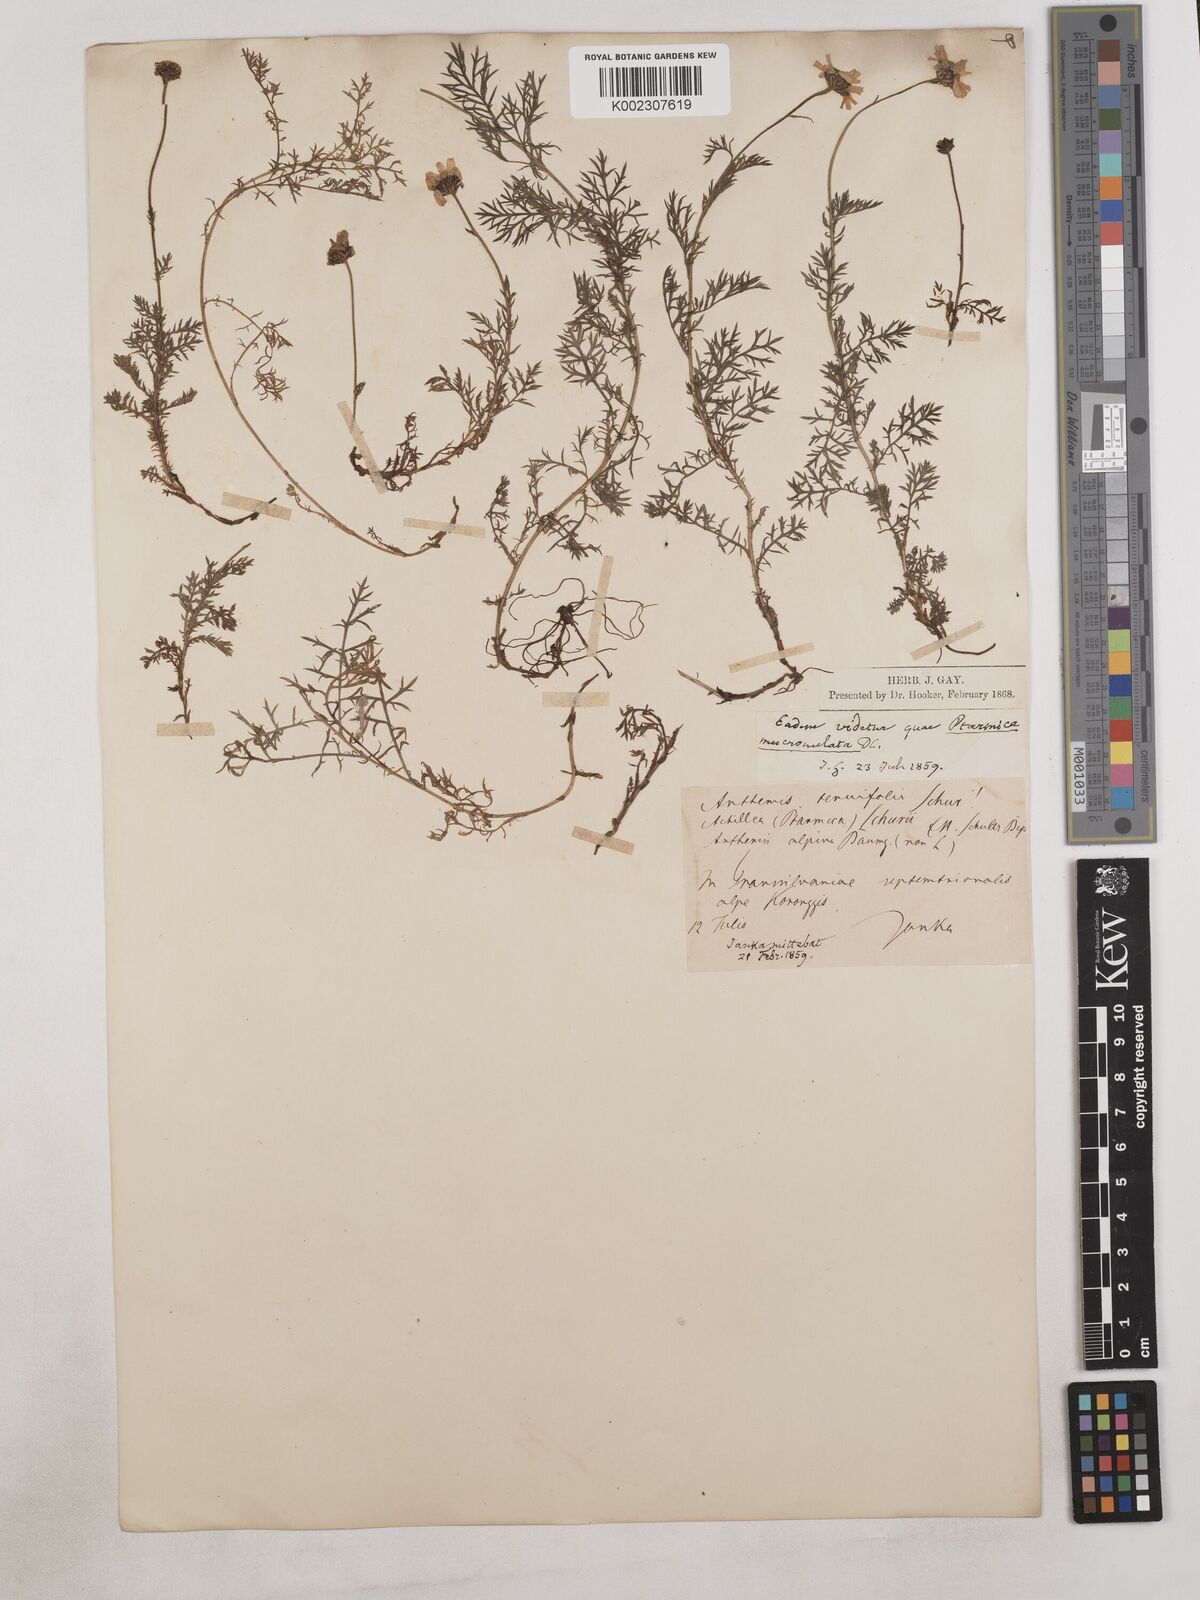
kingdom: Plantae
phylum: Tracheophyta
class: Magnoliopsida
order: Asterales
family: Asteraceae
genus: Achillea
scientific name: Achillea millefolium
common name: Yarrow
